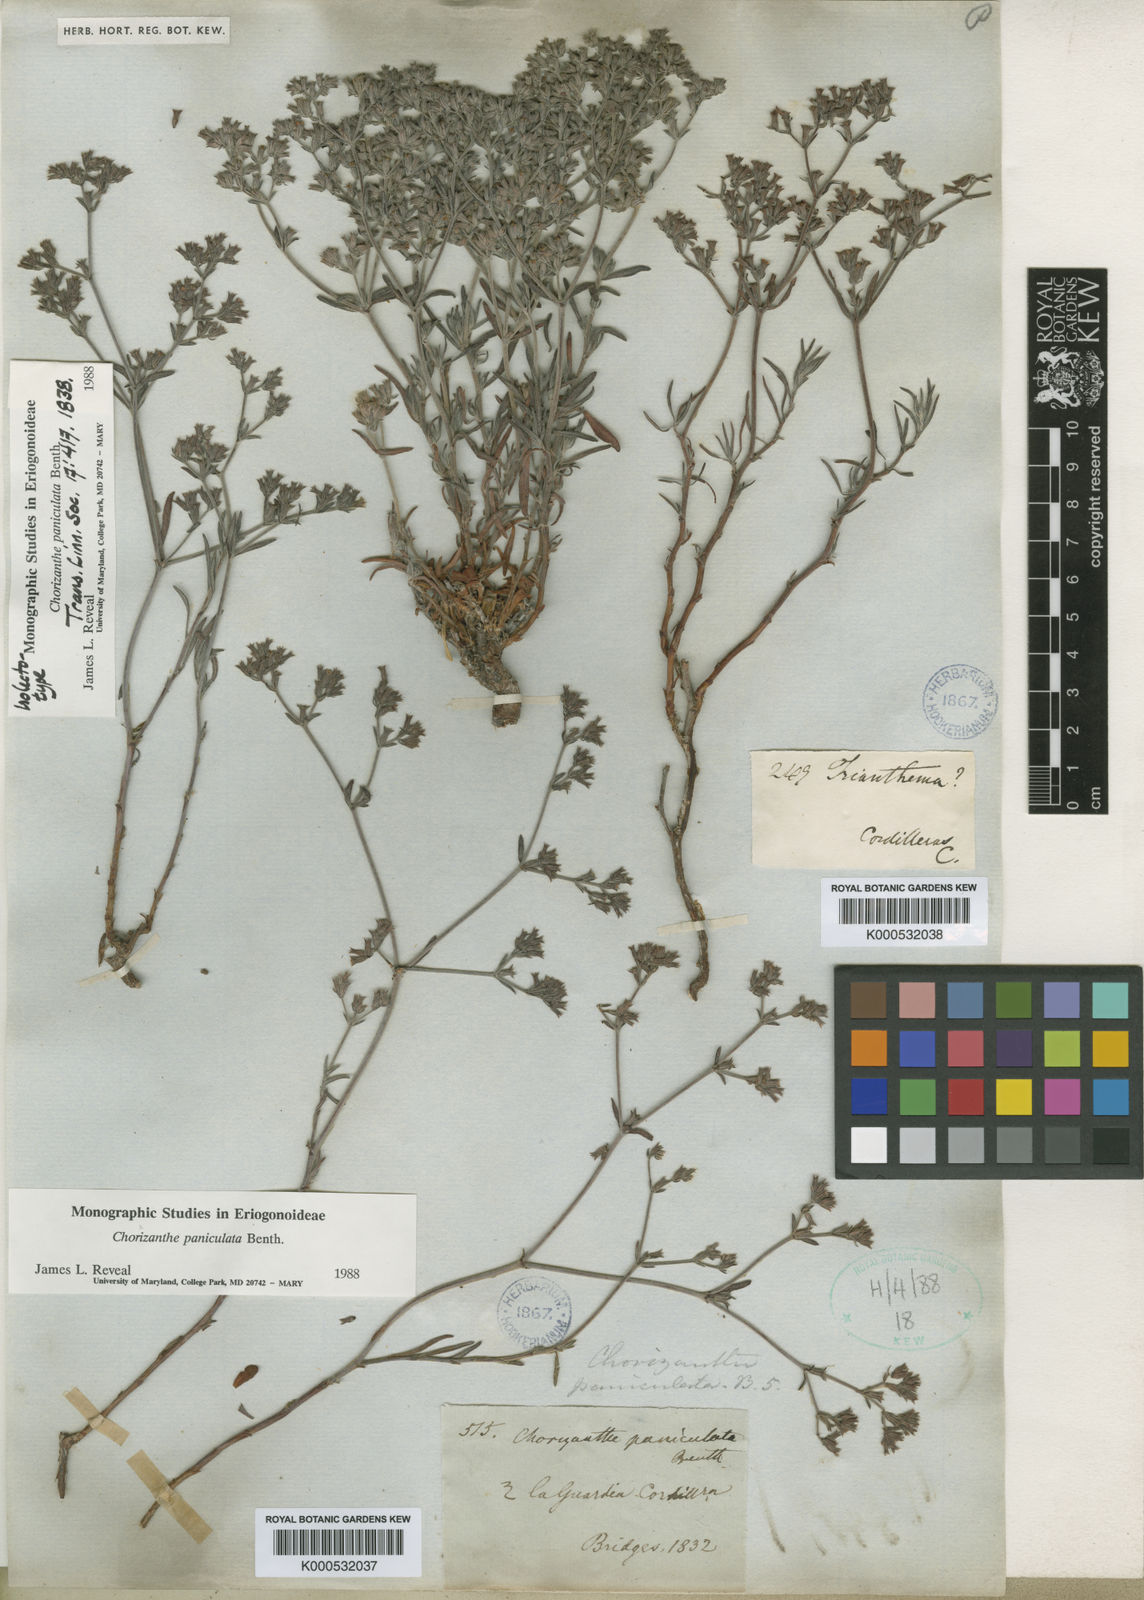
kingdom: Plantae
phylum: Tracheophyta
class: Magnoliopsida
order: Caryophyllales
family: Polygonaceae
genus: Chorizanthe
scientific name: Chorizanthe paniculata
